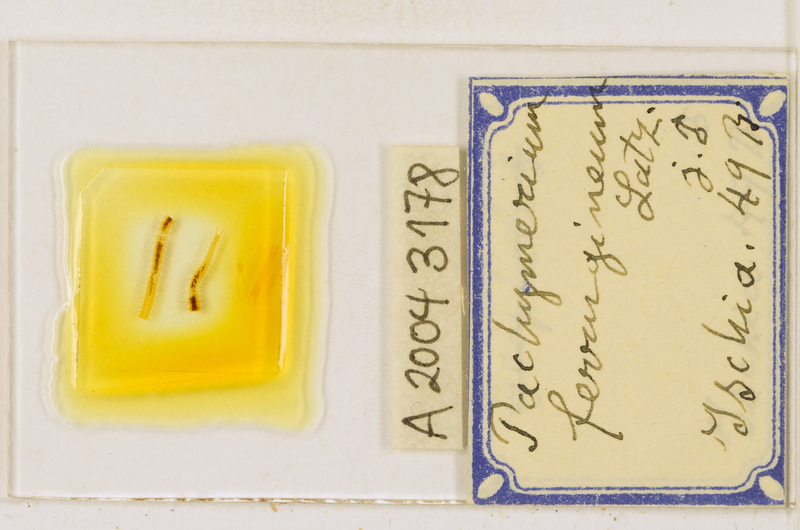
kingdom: Animalia
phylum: Arthropoda
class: Chilopoda
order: Geophilomorpha
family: Geophilidae
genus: Pachymerium
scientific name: Pachymerium ferrugineum
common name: Centipede
